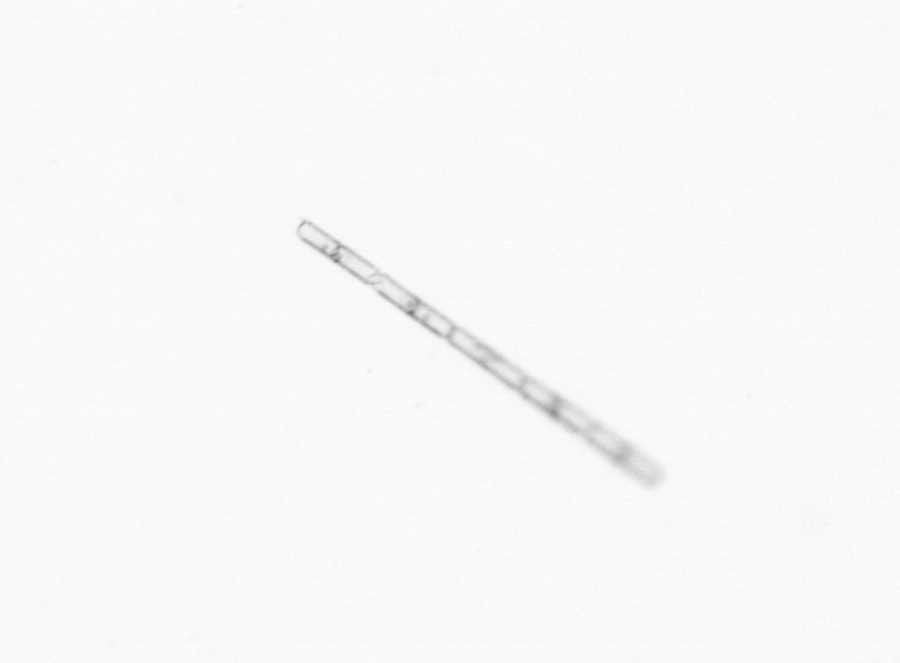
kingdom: Chromista
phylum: Ochrophyta
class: Bacillariophyceae
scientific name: Bacillariophyceae
